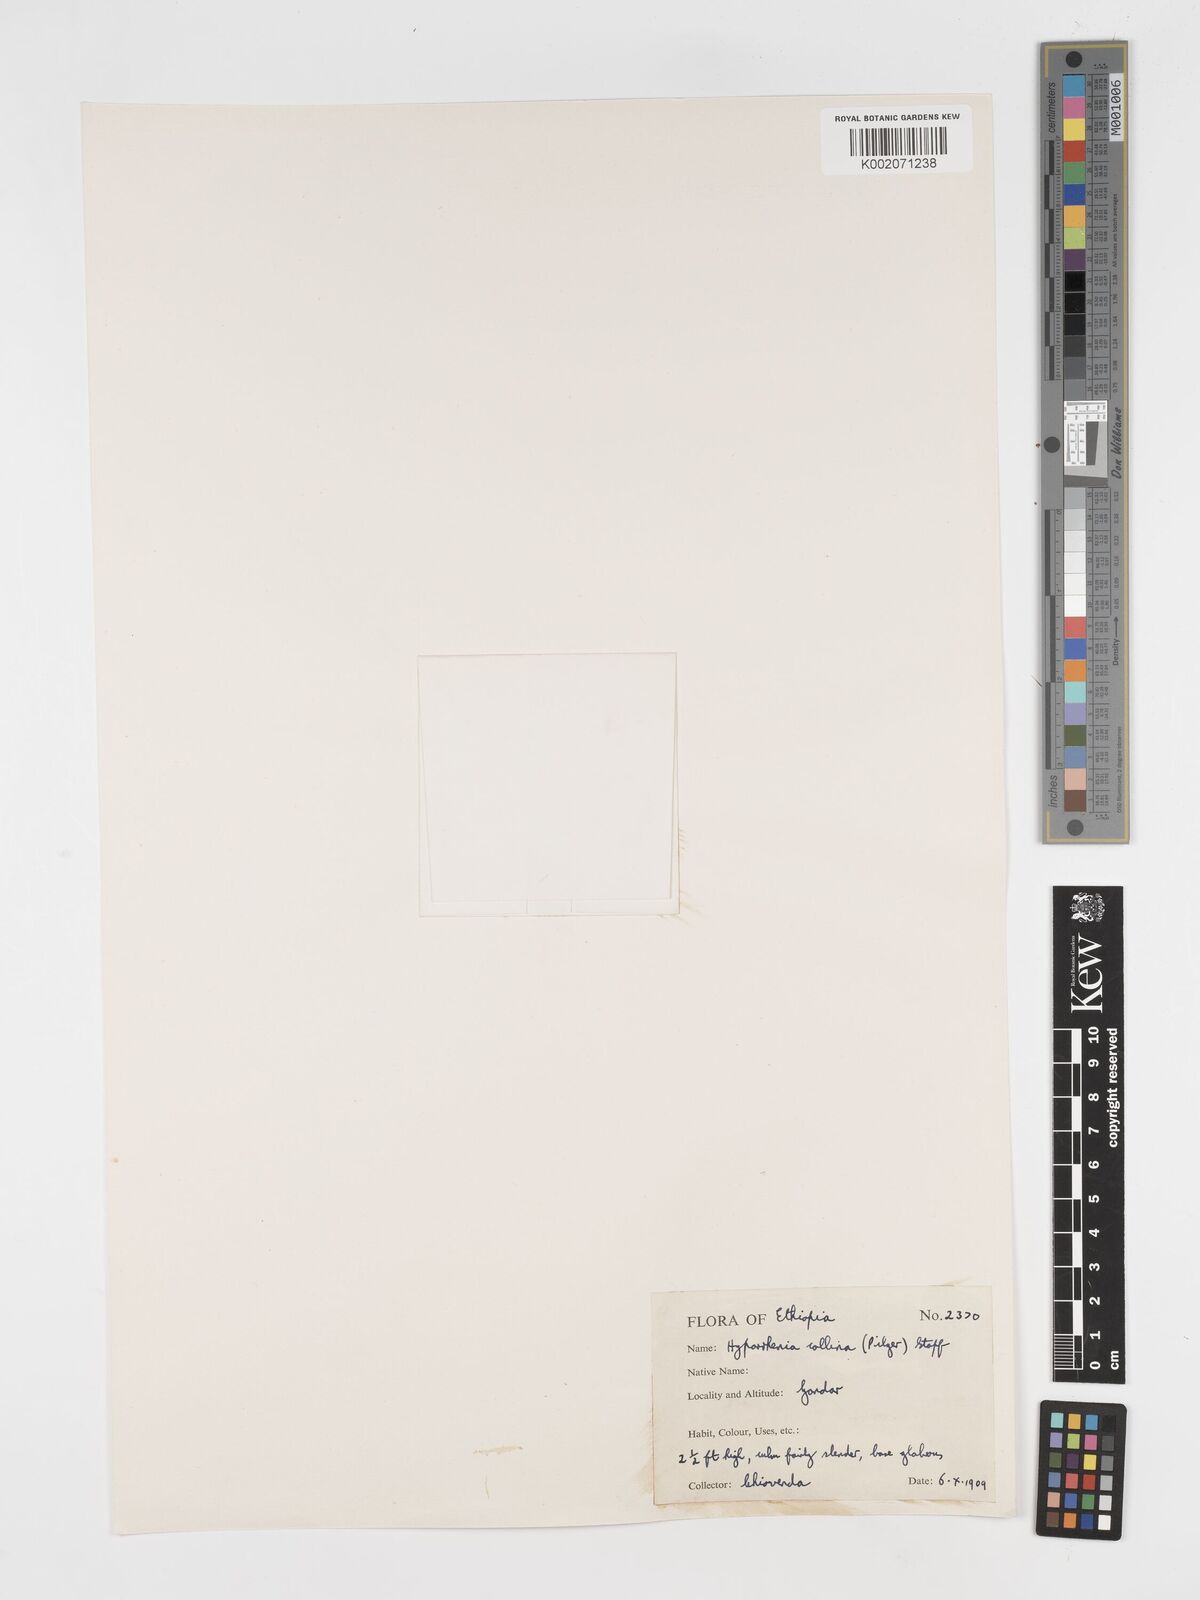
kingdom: Plantae
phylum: Tracheophyta
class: Liliopsida
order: Poales
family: Poaceae
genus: Hyparrhenia
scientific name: Hyparrhenia collina
